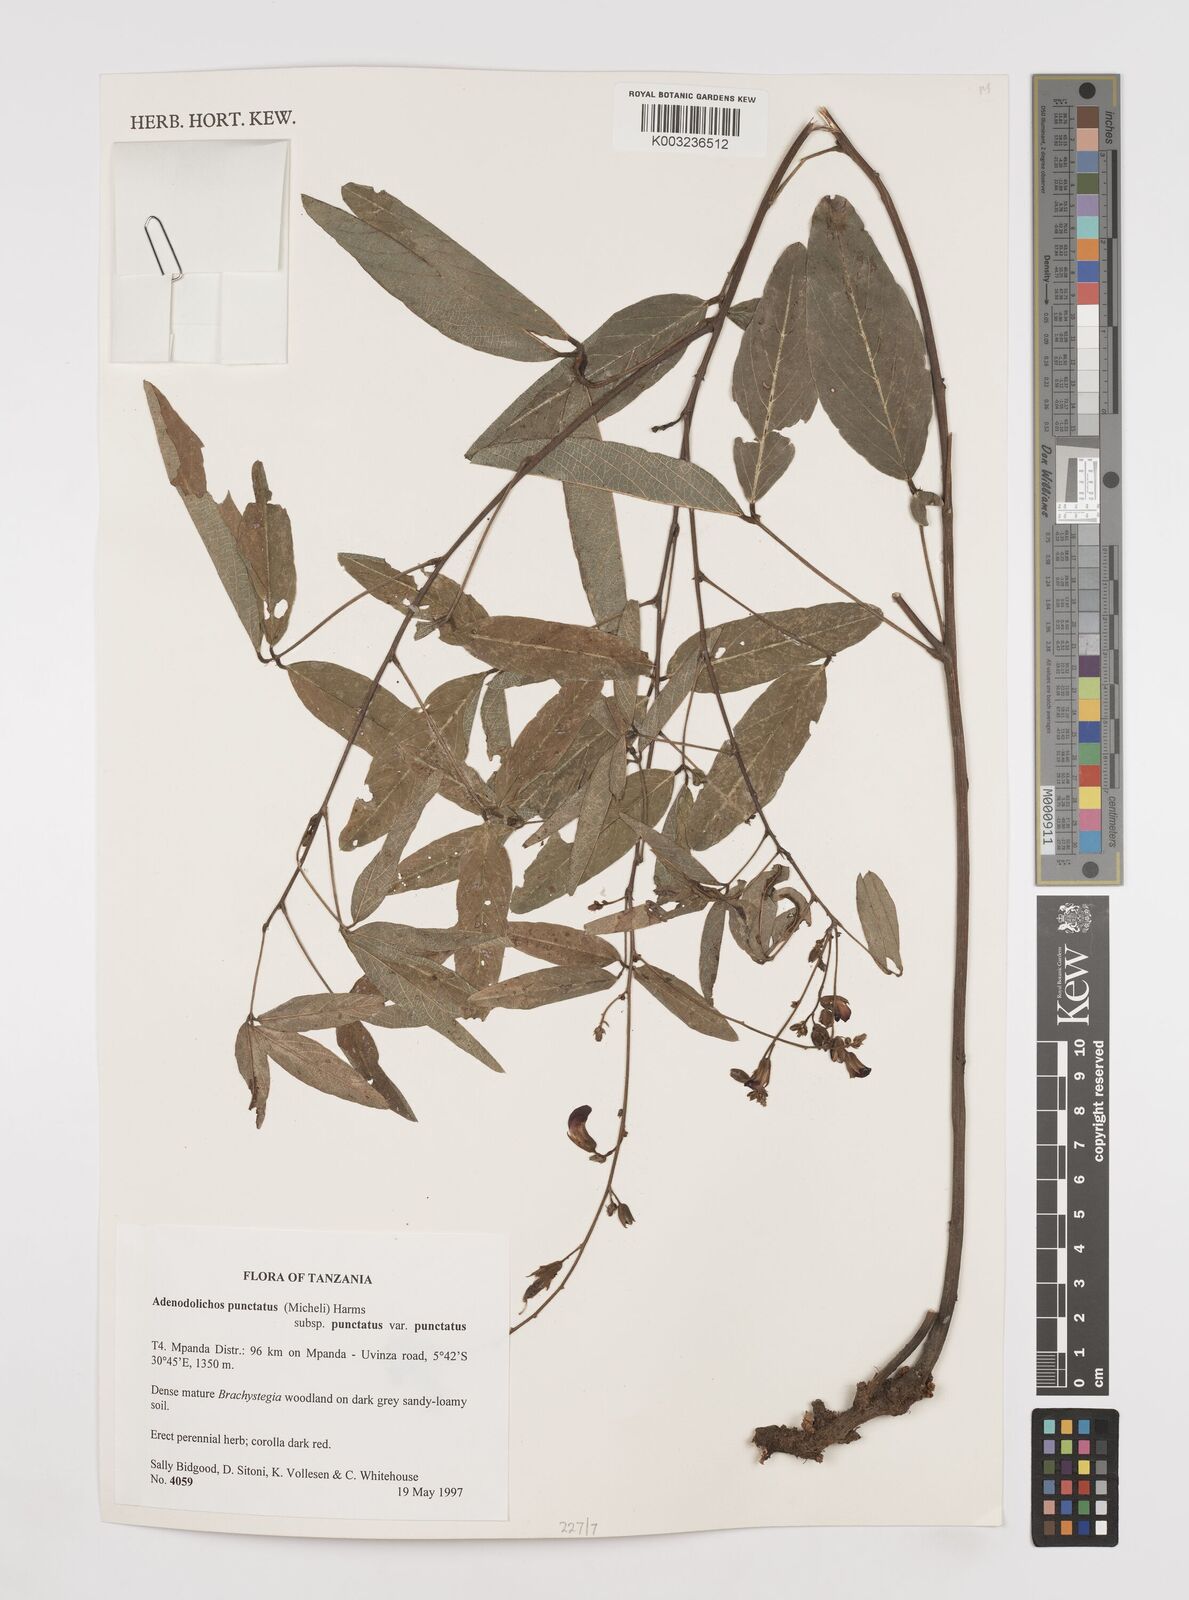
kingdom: Plantae
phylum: Tracheophyta
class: Magnoliopsida
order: Fabales
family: Fabaceae
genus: Adenodolichos
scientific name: Adenodolichos punctatus
